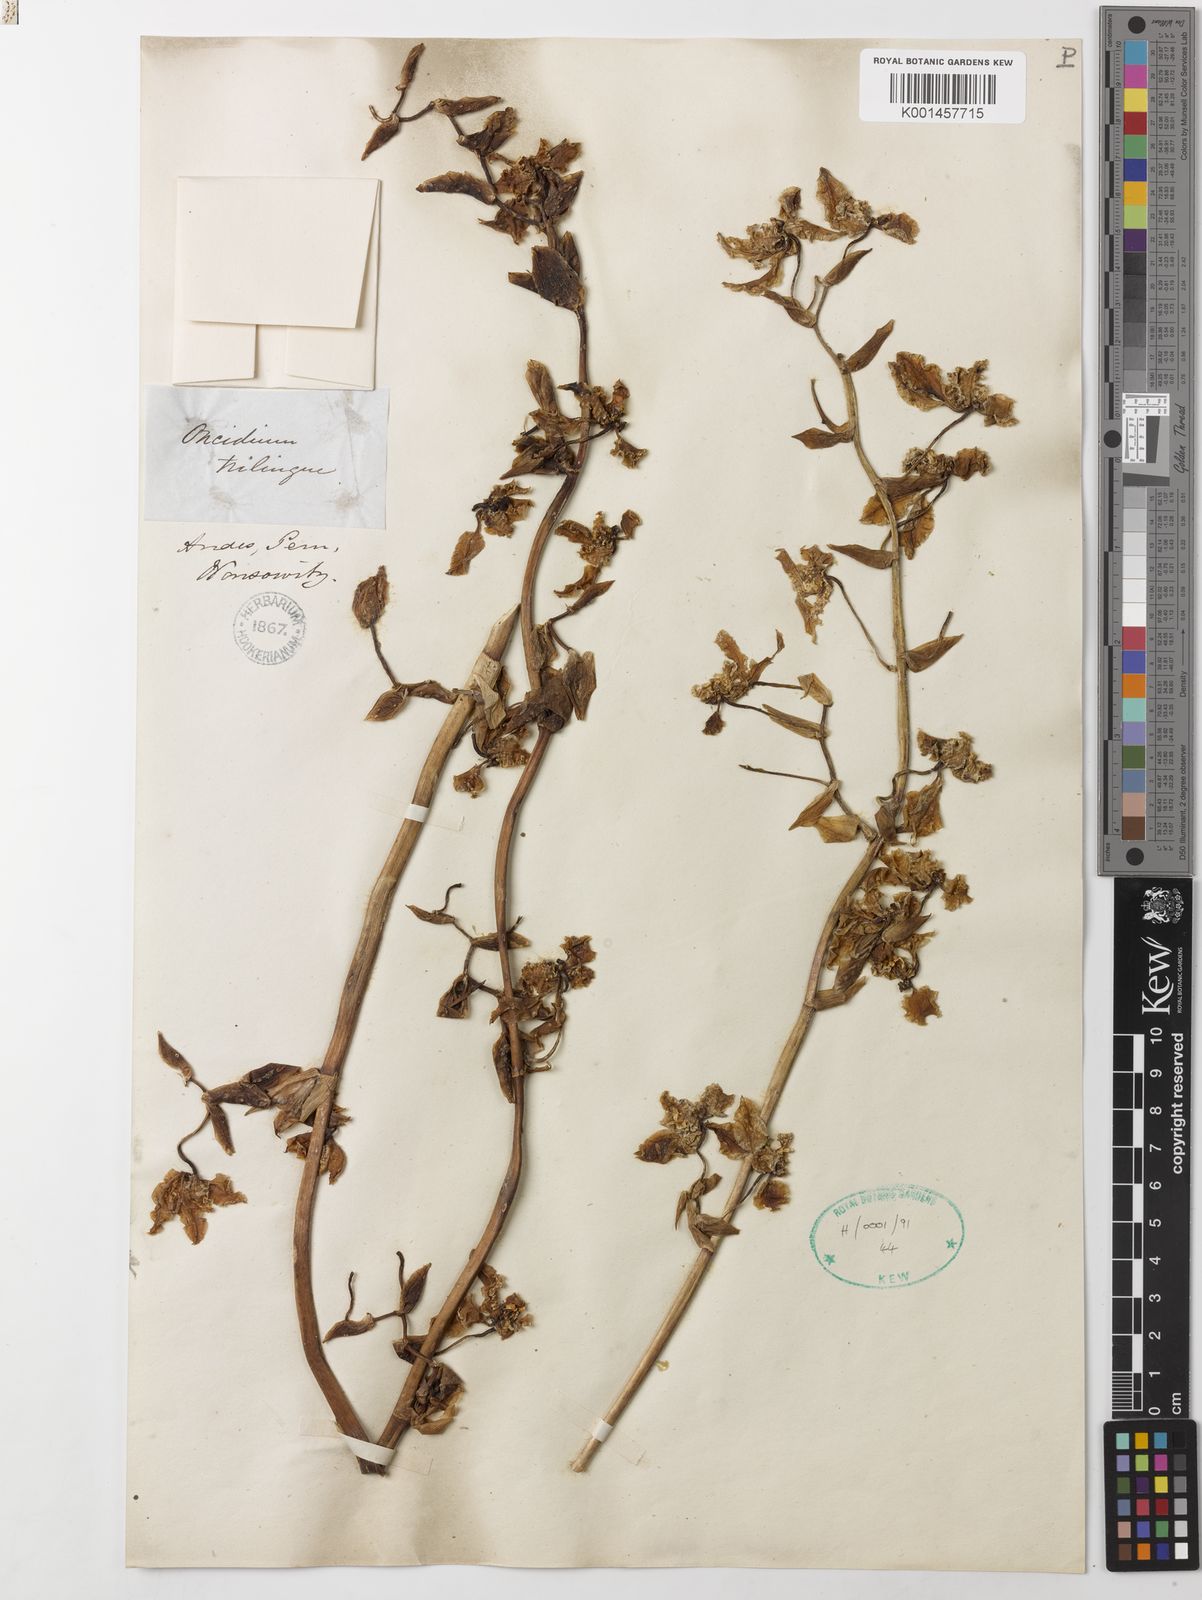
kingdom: Plantae
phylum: Tracheophyta
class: Liliopsida
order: Asparagales
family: Orchidaceae
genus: Cyrtochilum
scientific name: Cyrtochilum
